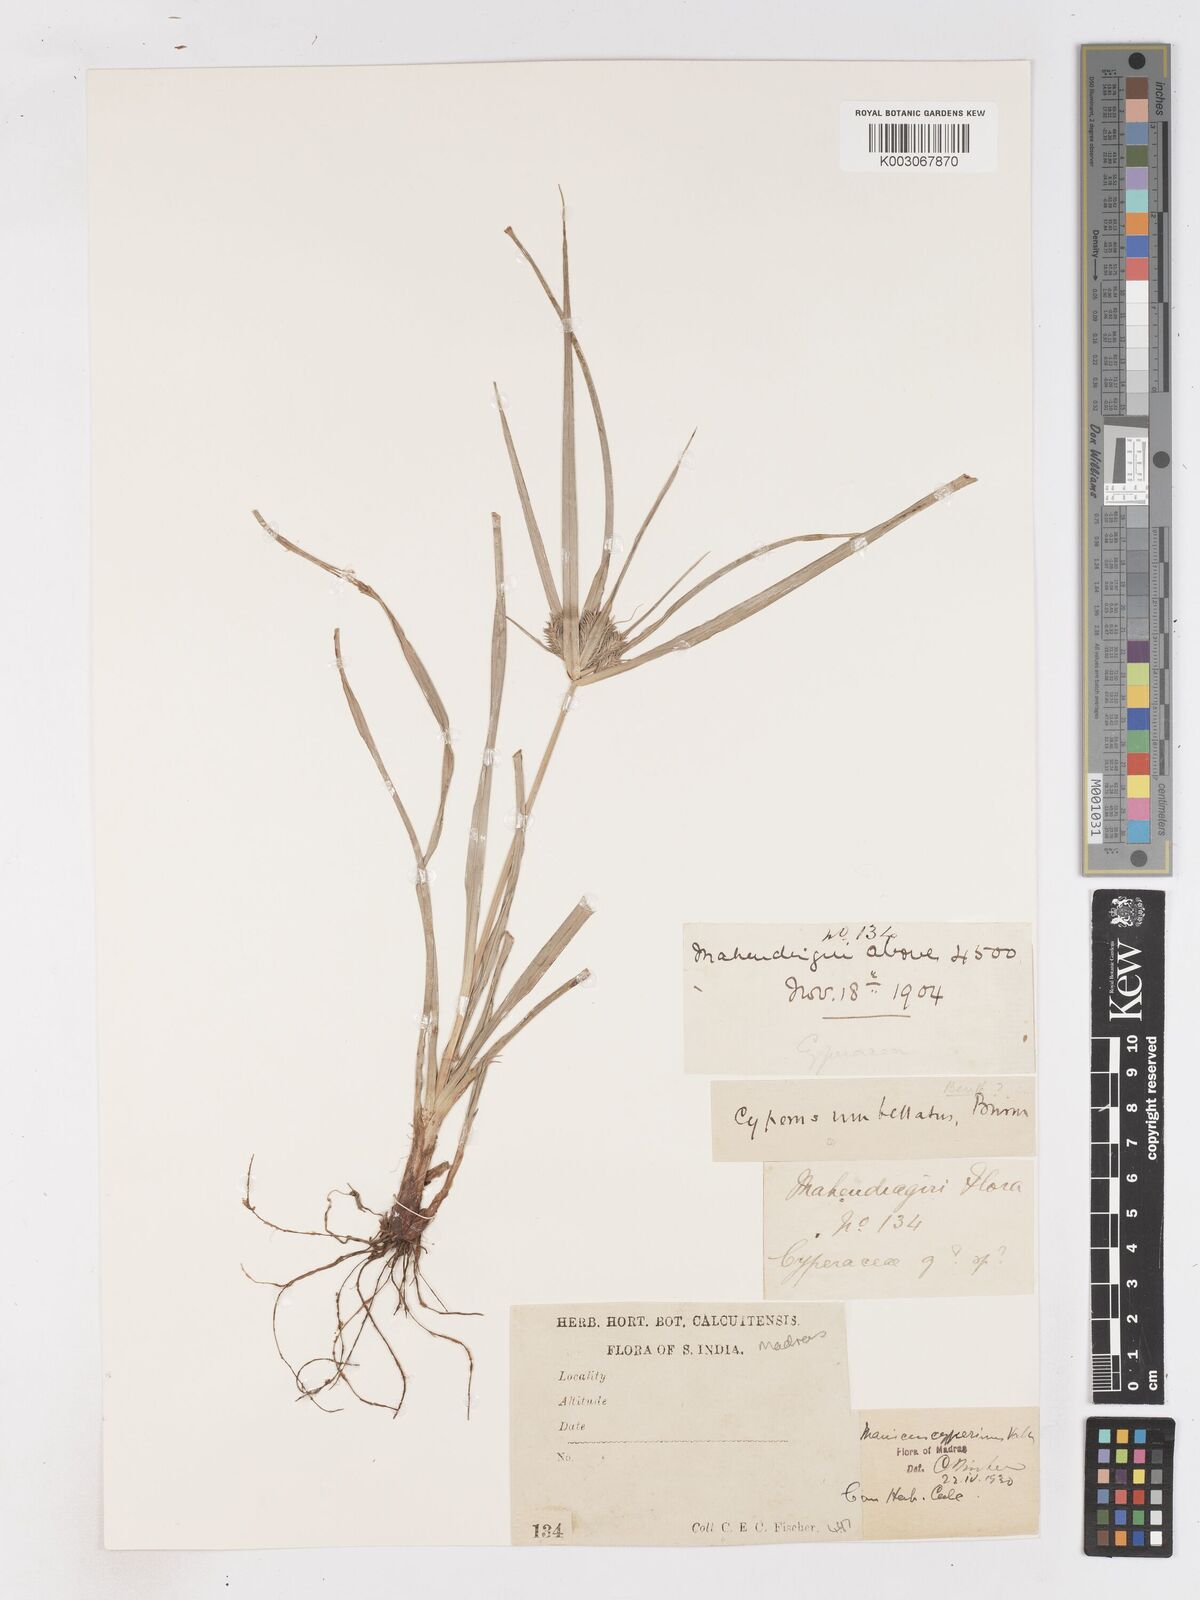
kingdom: Plantae
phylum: Tracheophyta
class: Liliopsida
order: Poales
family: Cyperaceae
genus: Cyperus
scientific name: Cyperus cyperinus
